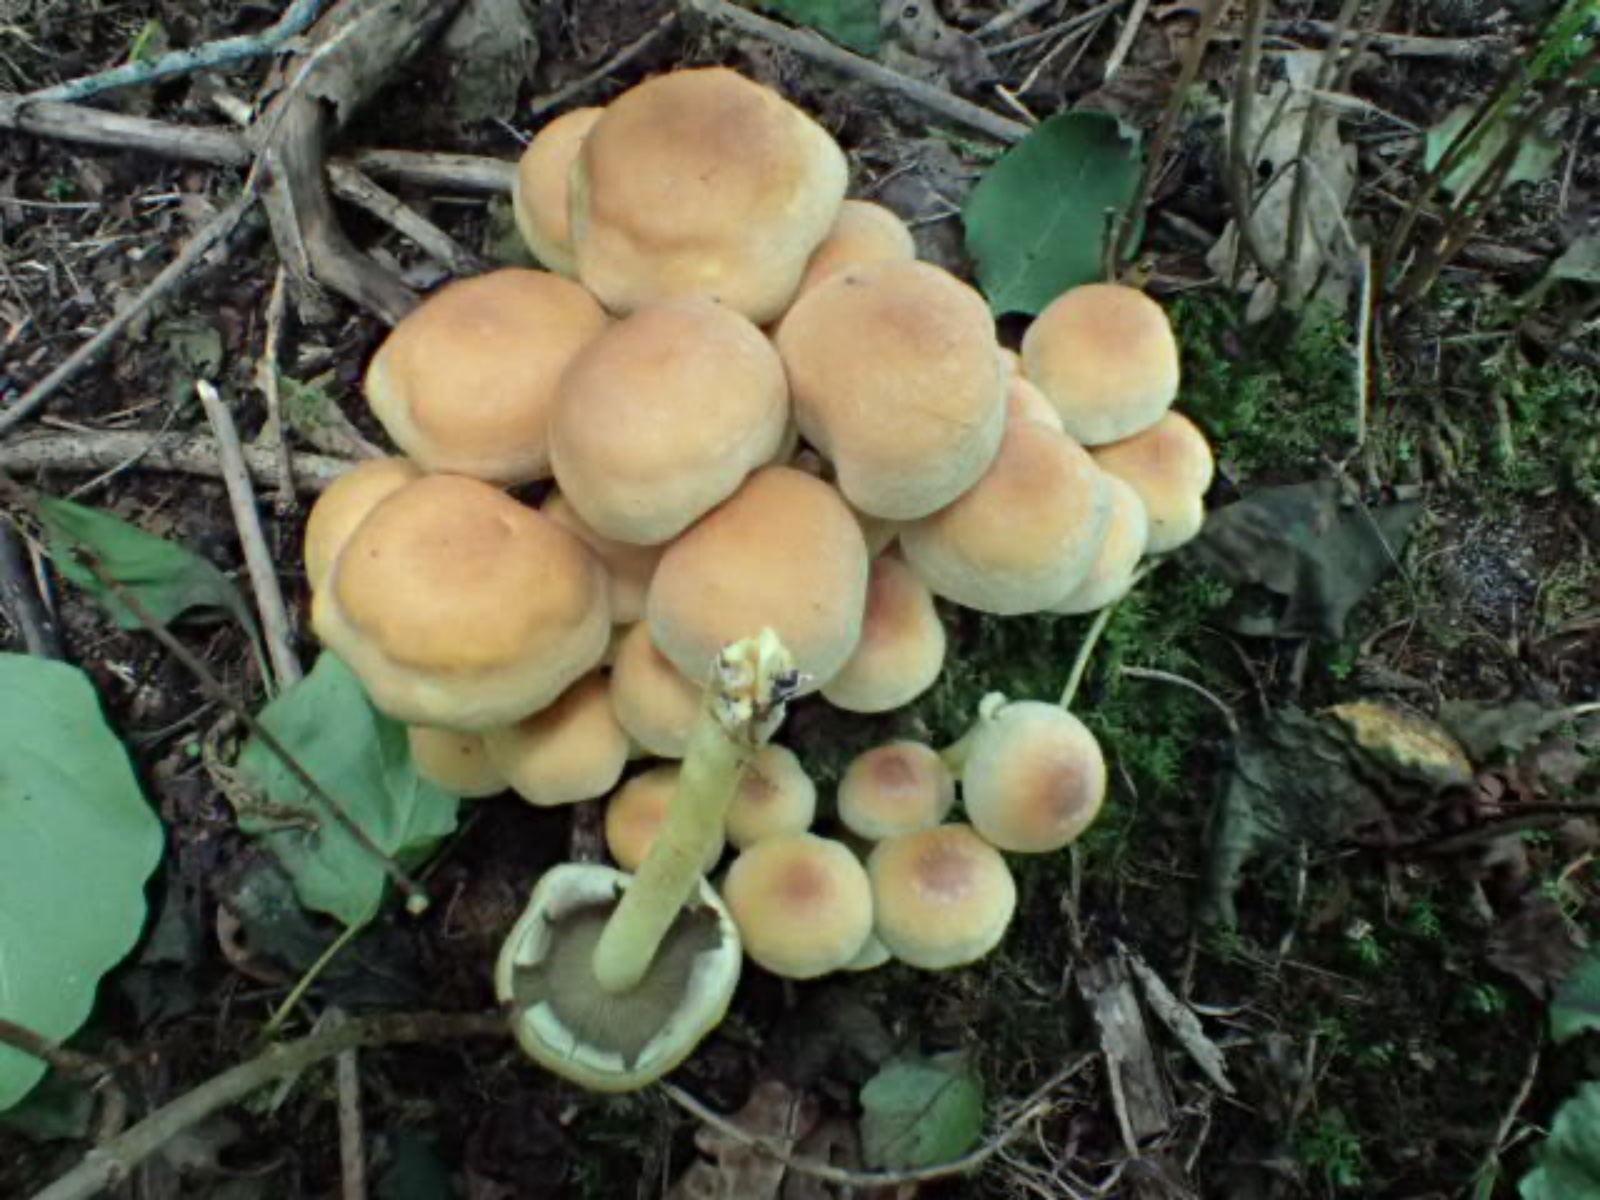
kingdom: Fungi
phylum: Basidiomycota
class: Agaricomycetes
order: Agaricales
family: Strophariaceae
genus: Hypholoma
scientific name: Hypholoma fasciculare
